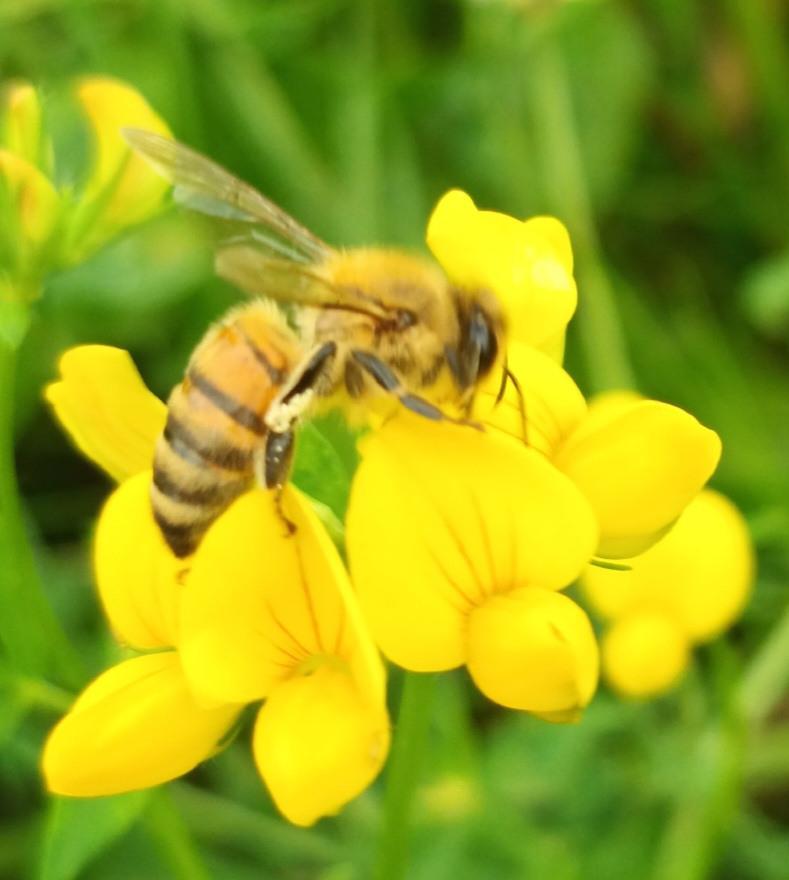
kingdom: Animalia
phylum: Arthropoda
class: Insecta
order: Hymenoptera
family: Apidae
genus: Apis
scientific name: Apis mellifera
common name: Honningbi
